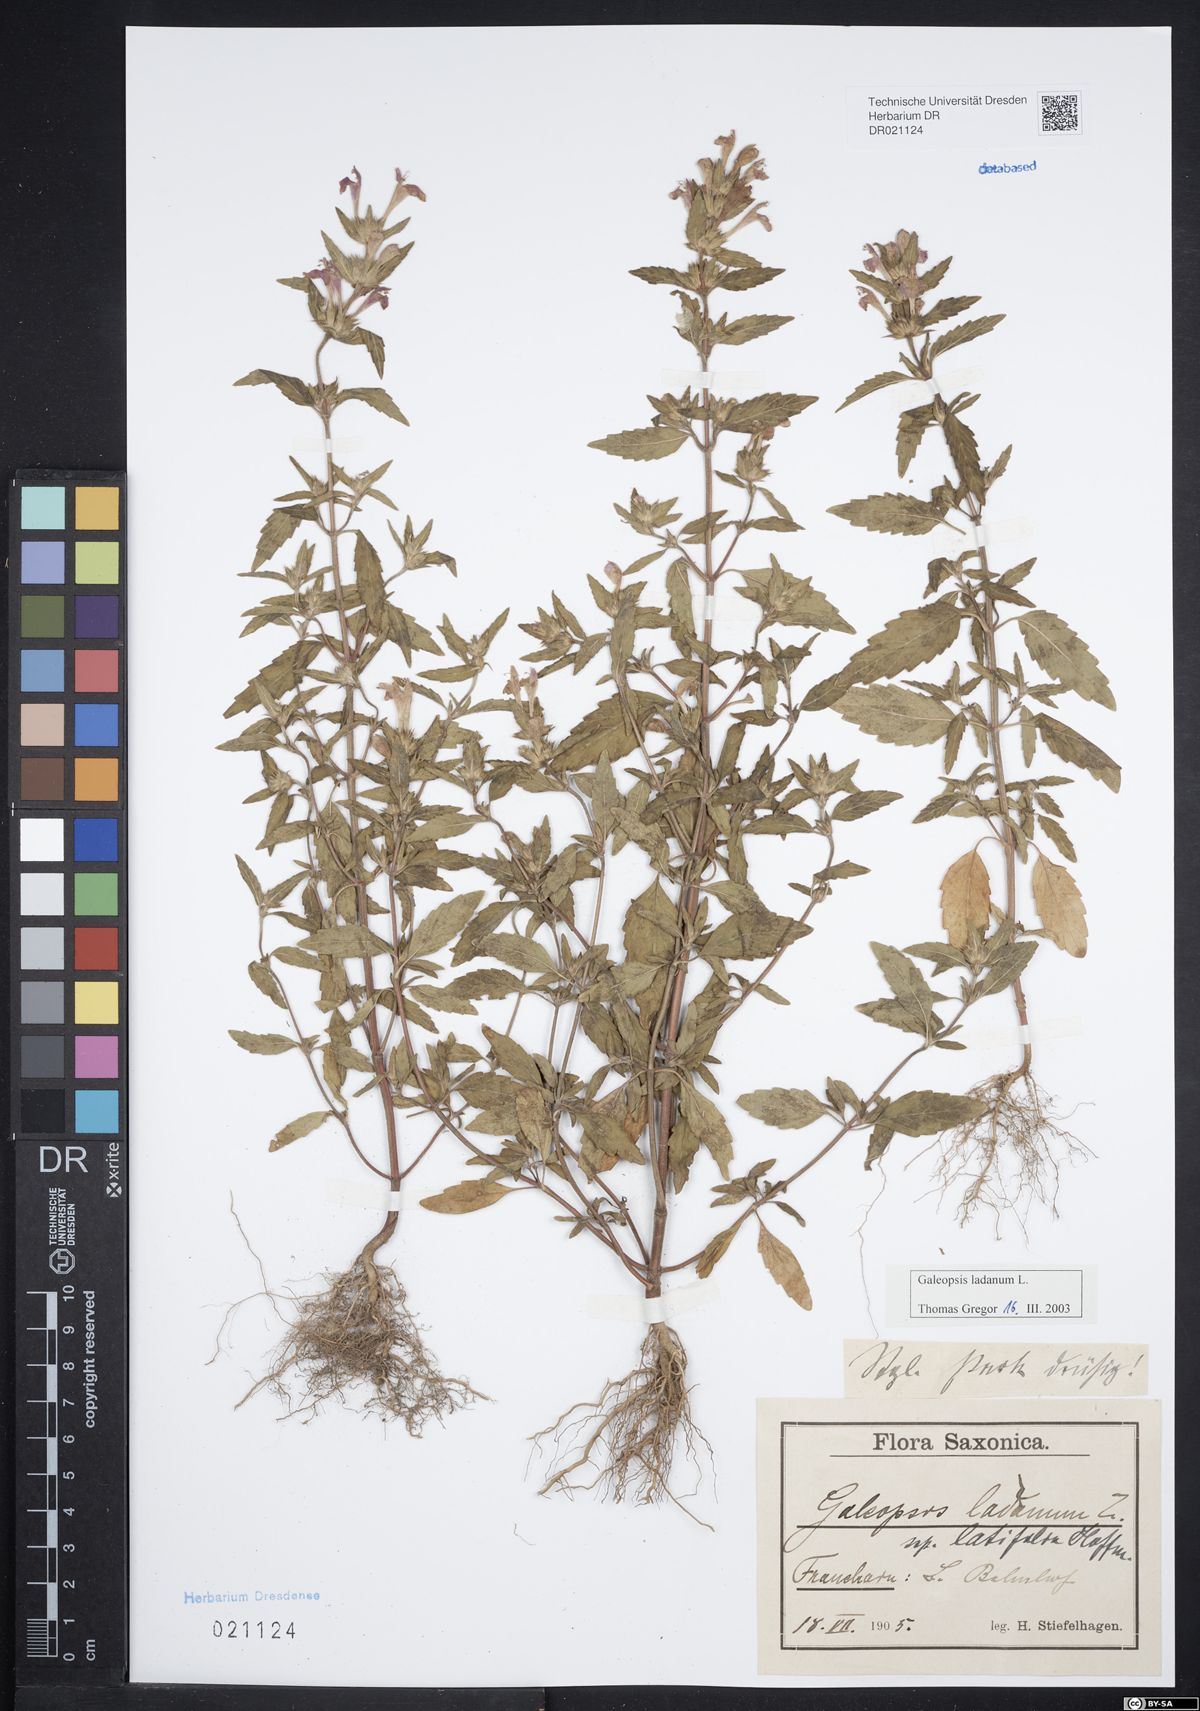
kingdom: Plantae
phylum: Tracheophyta
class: Magnoliopsida
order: Lamiales
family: Lamiaceae
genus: Galeopsis
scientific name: Galeopsis ladanum
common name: Broad-leaved hemp-nettle
